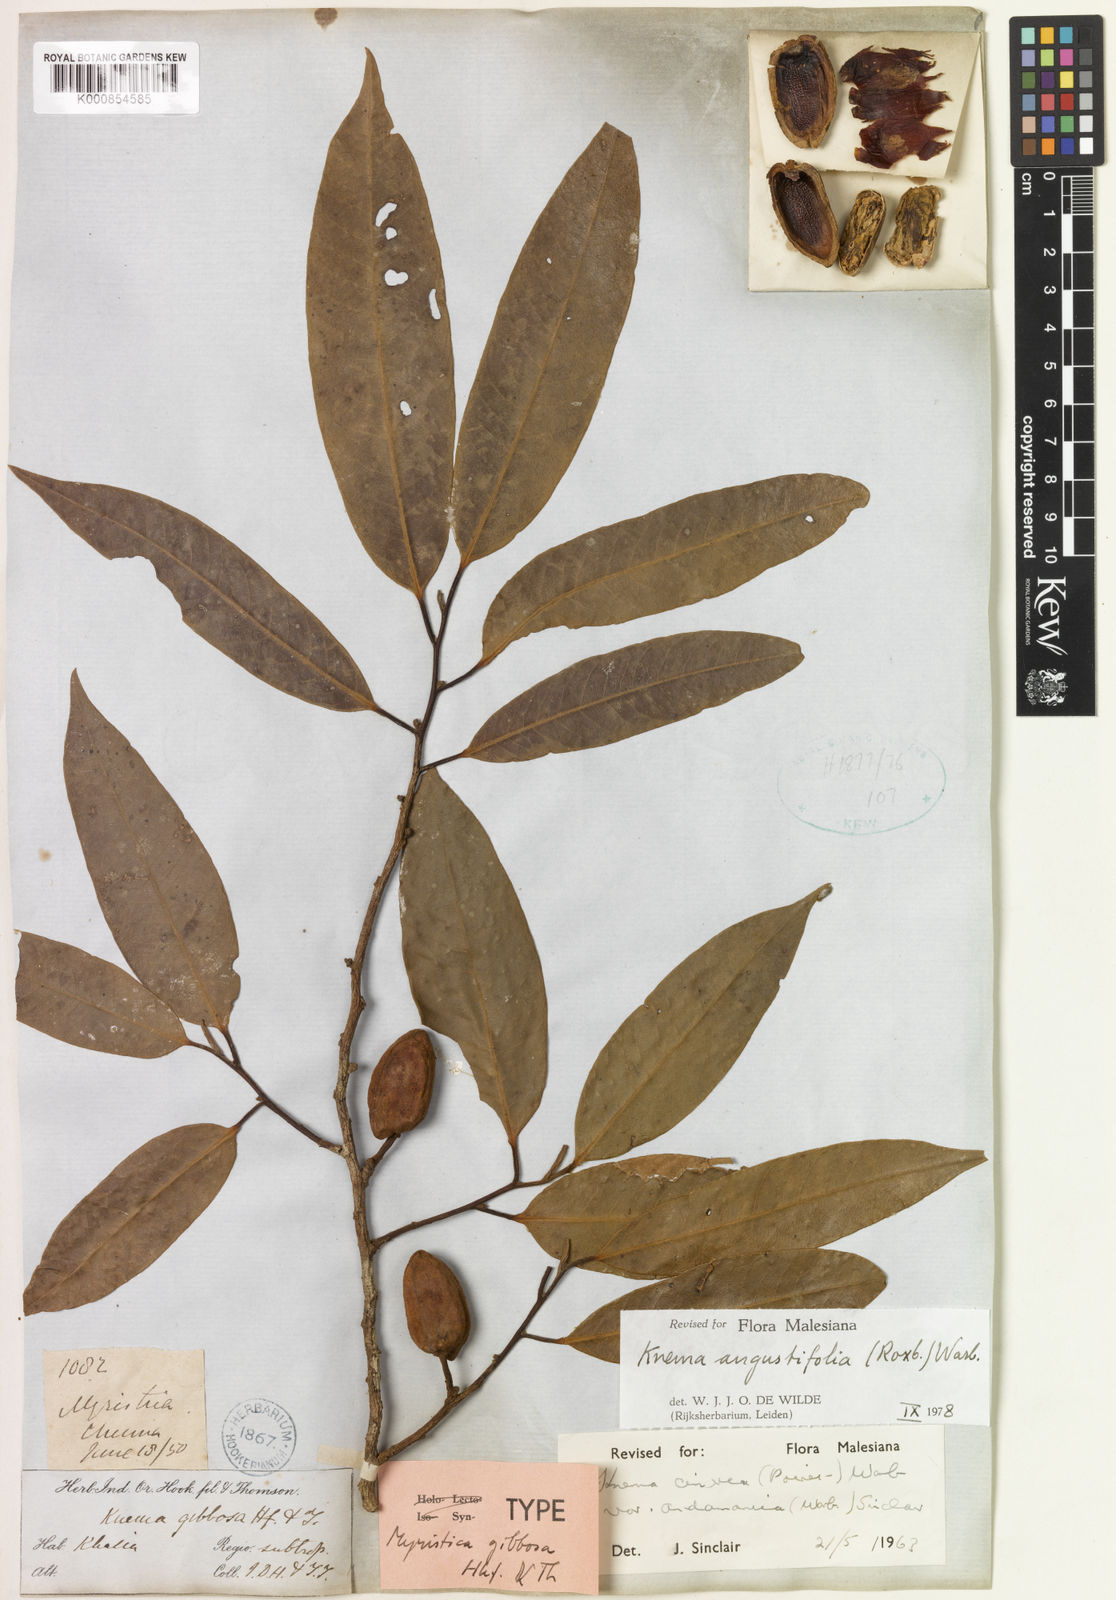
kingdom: Plantae
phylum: Tracheophyta
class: Magnoliopsida
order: Magnoliales
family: Myristicaceae
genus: Knema
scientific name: Knema angustifolia
